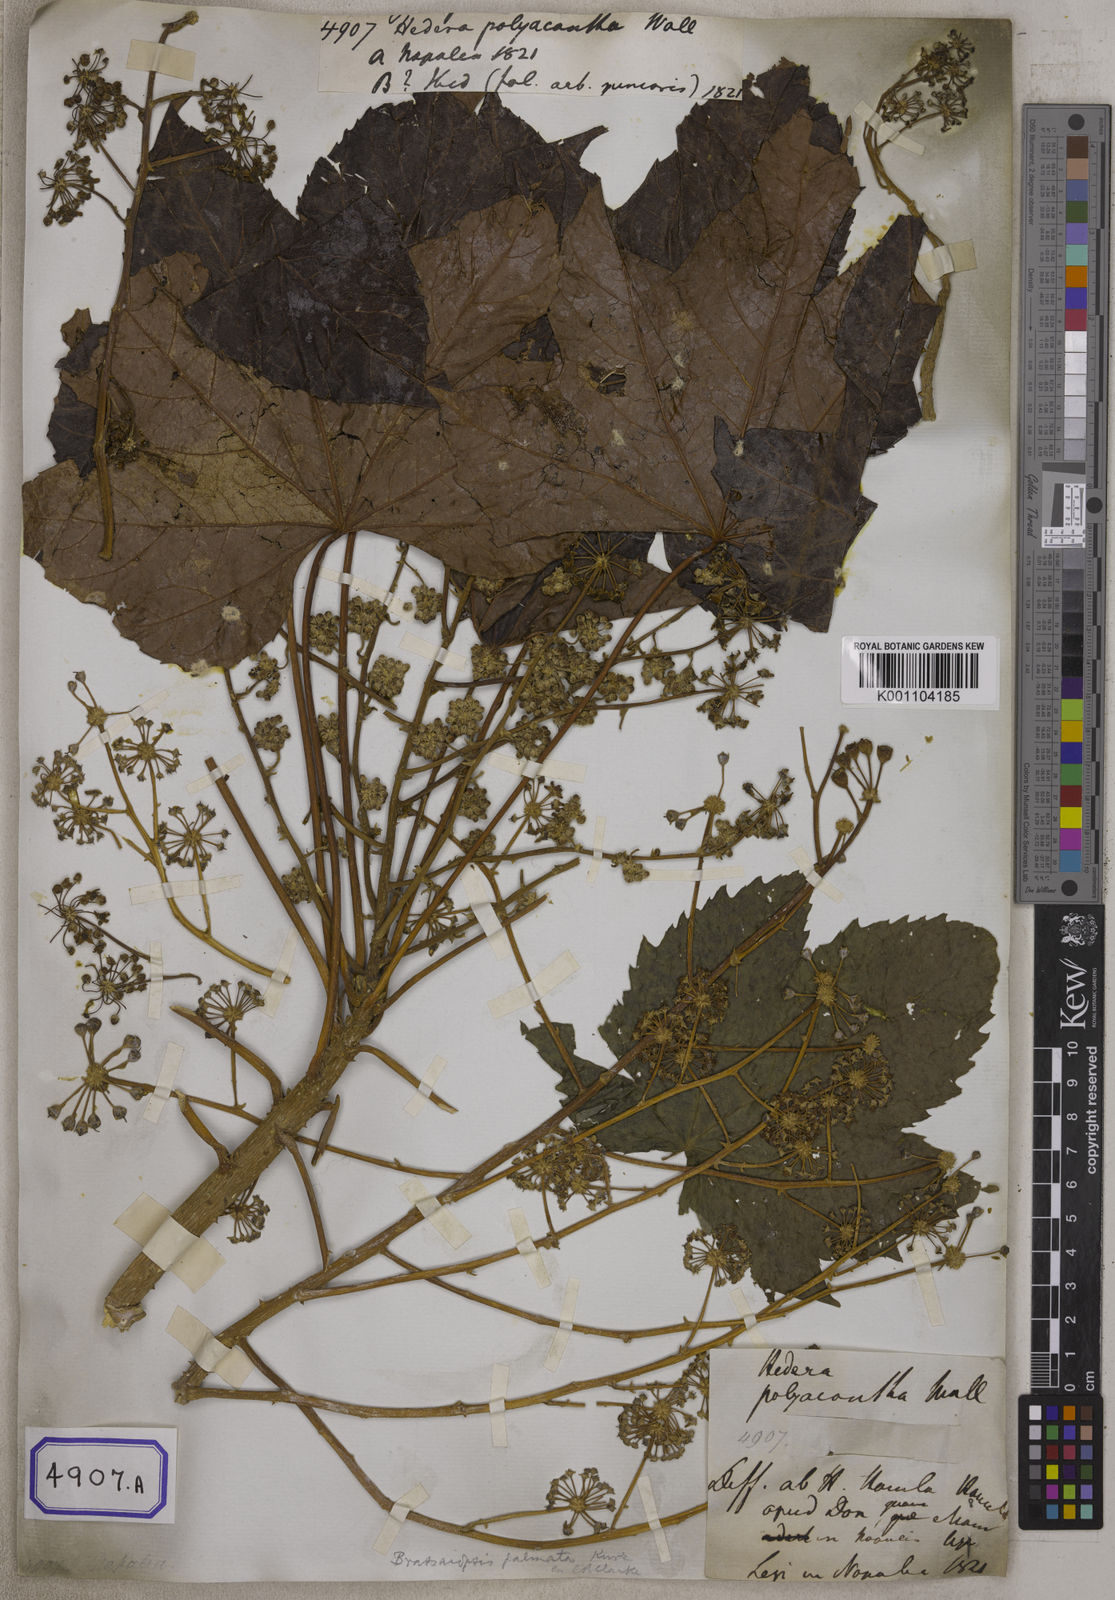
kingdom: Plantae
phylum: Tracheophyta
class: Magnoliopsida
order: Apiales
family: Araliaceae
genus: Brassaiopsis
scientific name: Brassaiopsis hainla
